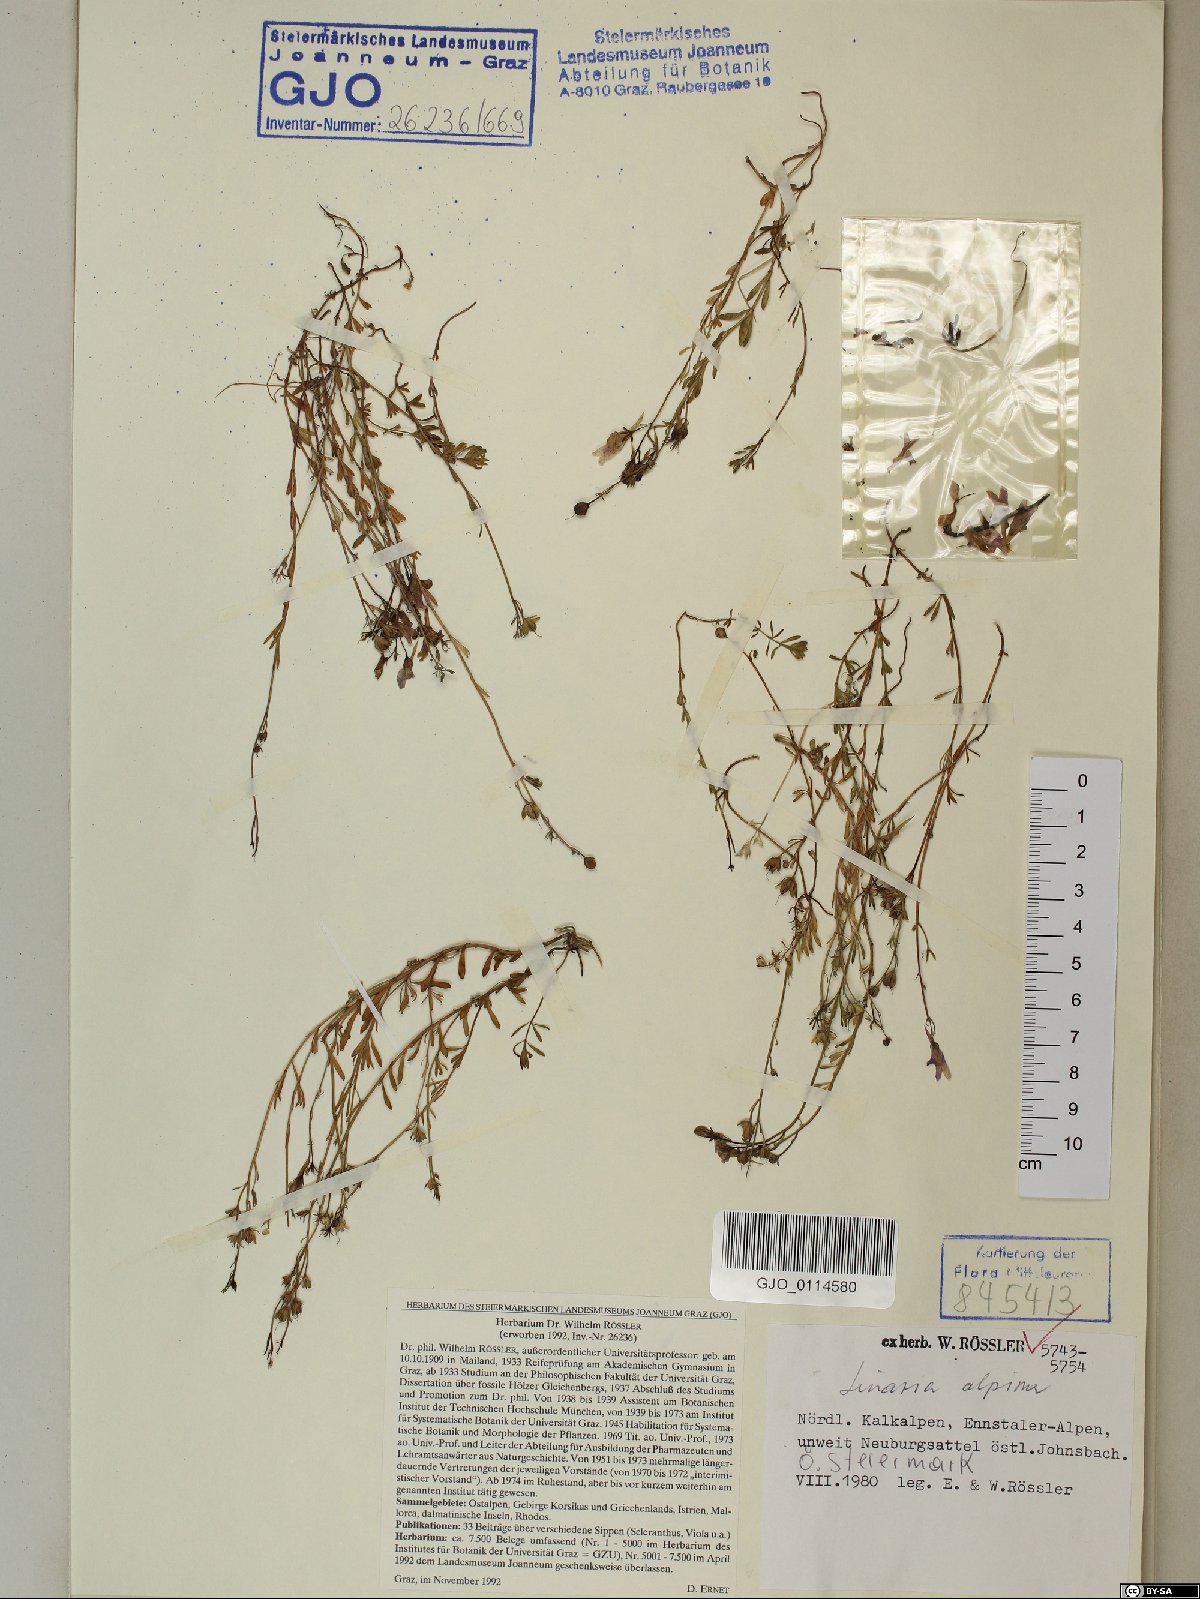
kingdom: Plantae
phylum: Tracheophyta
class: Magnoliopsida
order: Lamiales
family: Plantaginaceae
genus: Linaria
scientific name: Linaria alpina
